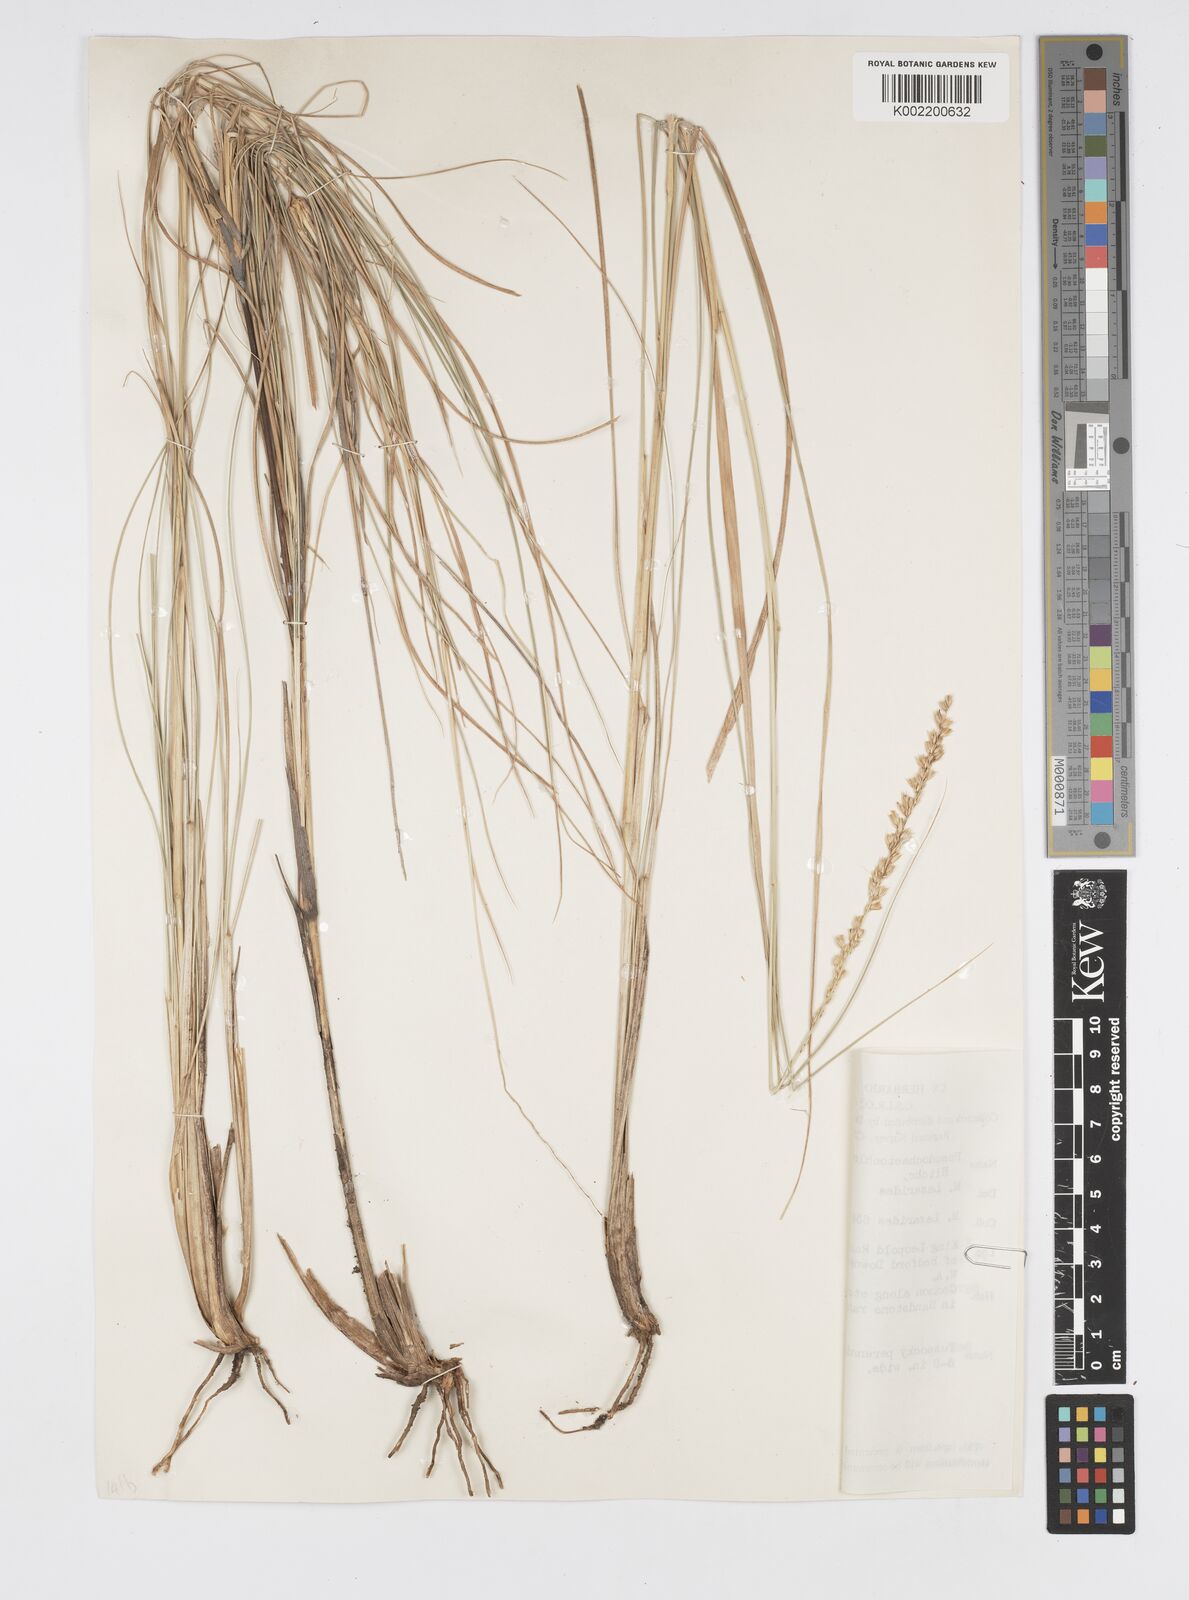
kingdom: Plantae
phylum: Tracheophyta
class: Liliopsida
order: Poales
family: Poaceae
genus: Cenchrus
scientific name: Cenchrus arnhemicus
